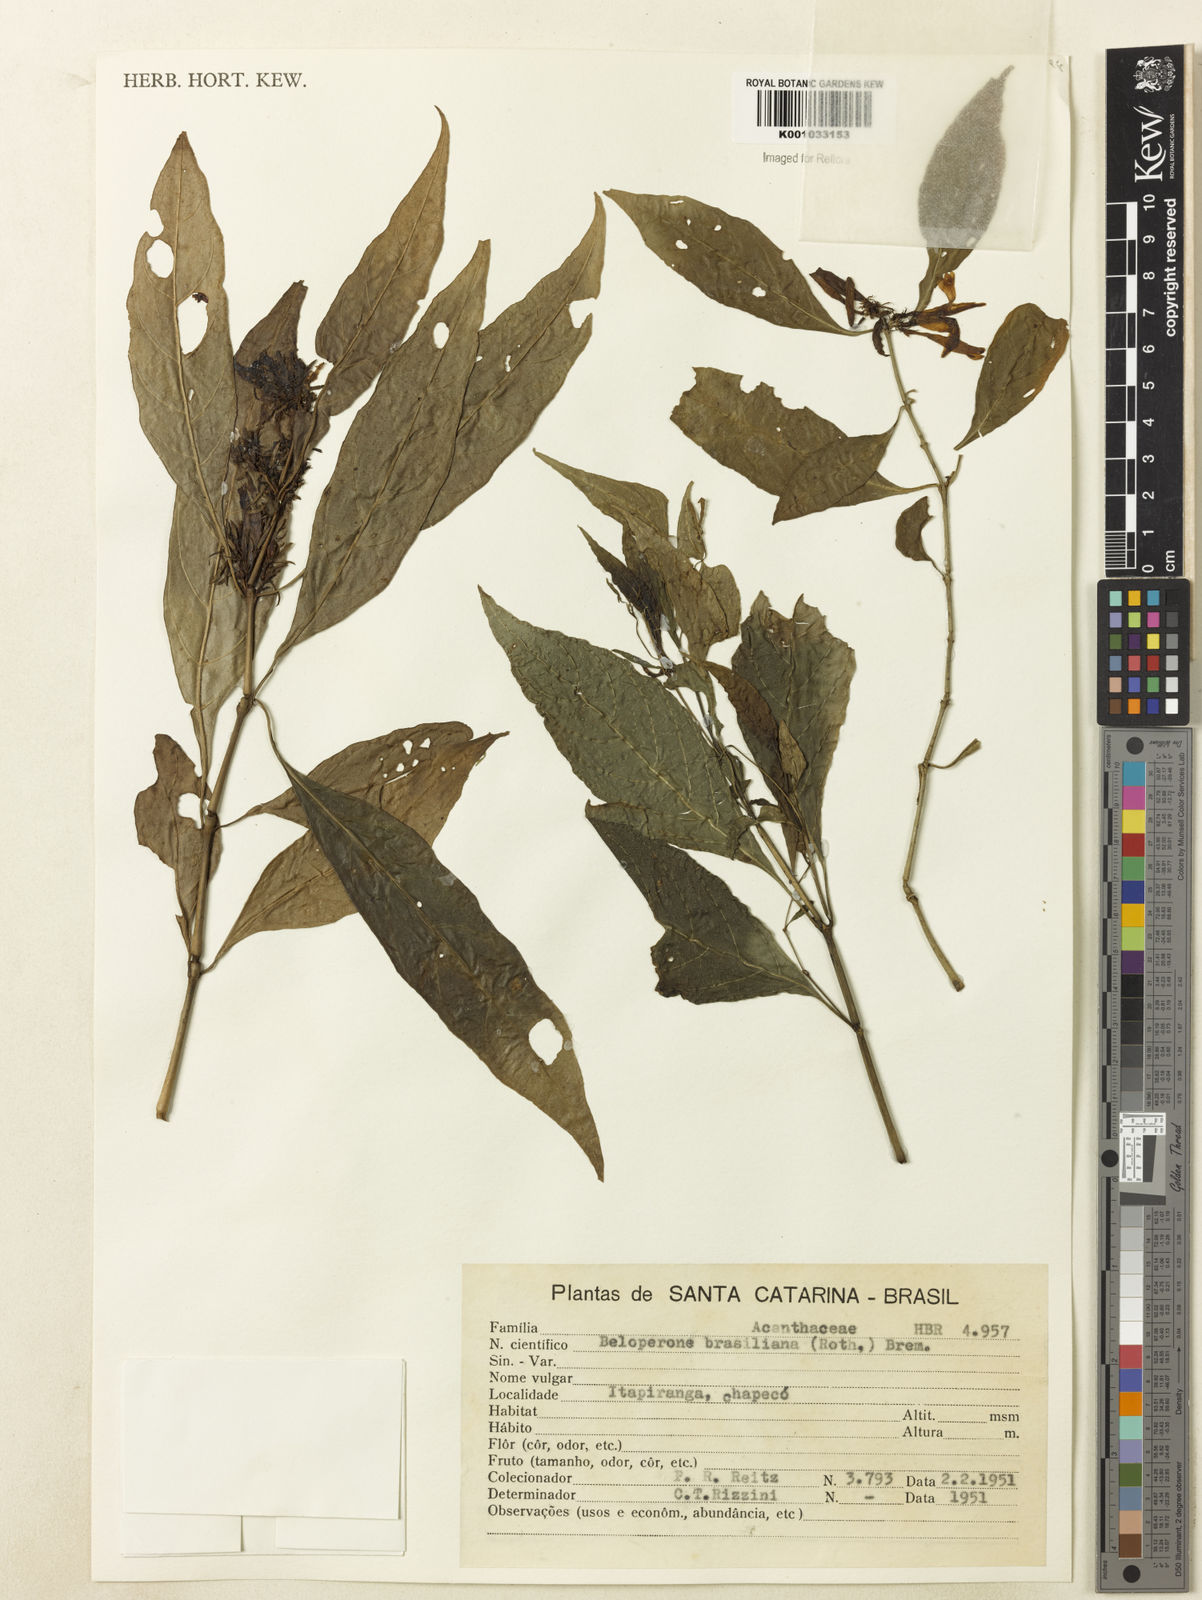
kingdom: Plantae
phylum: Tracheophyta
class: Magnoliopsida
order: Lamiales
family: Acanthaceae
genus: Justicia
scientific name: Justicia brasiliana
